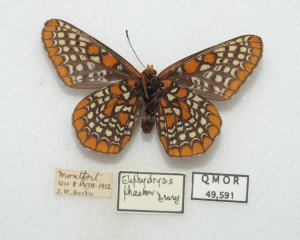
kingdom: Animalia
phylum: Arthropoda
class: Insecta
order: Lepidoptera
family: Nymphalidae
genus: Euphydryas
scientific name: Euphydryas phaeton
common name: Baltimore Checkerspot
